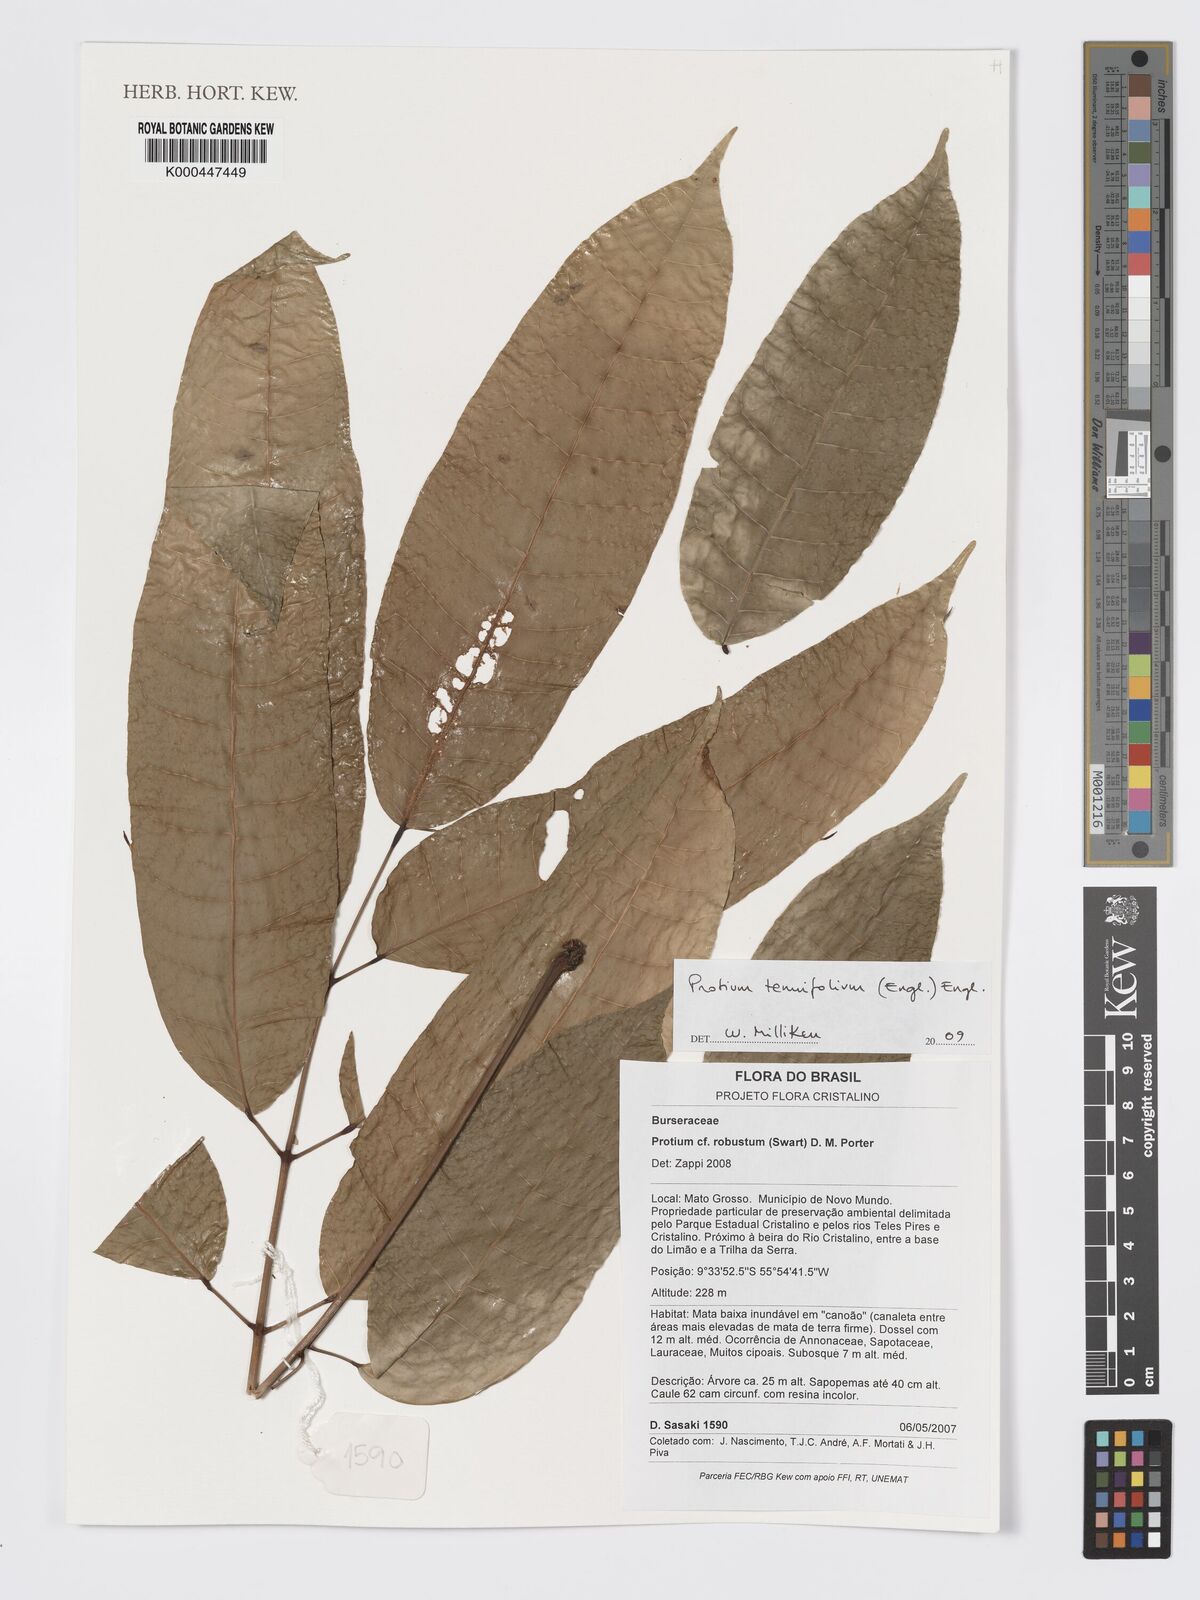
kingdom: Plantae
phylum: Tracheophyta
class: Magnoliopsida
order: Sapindales
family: Burseraceae
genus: Protium
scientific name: Protium tenuifolium
